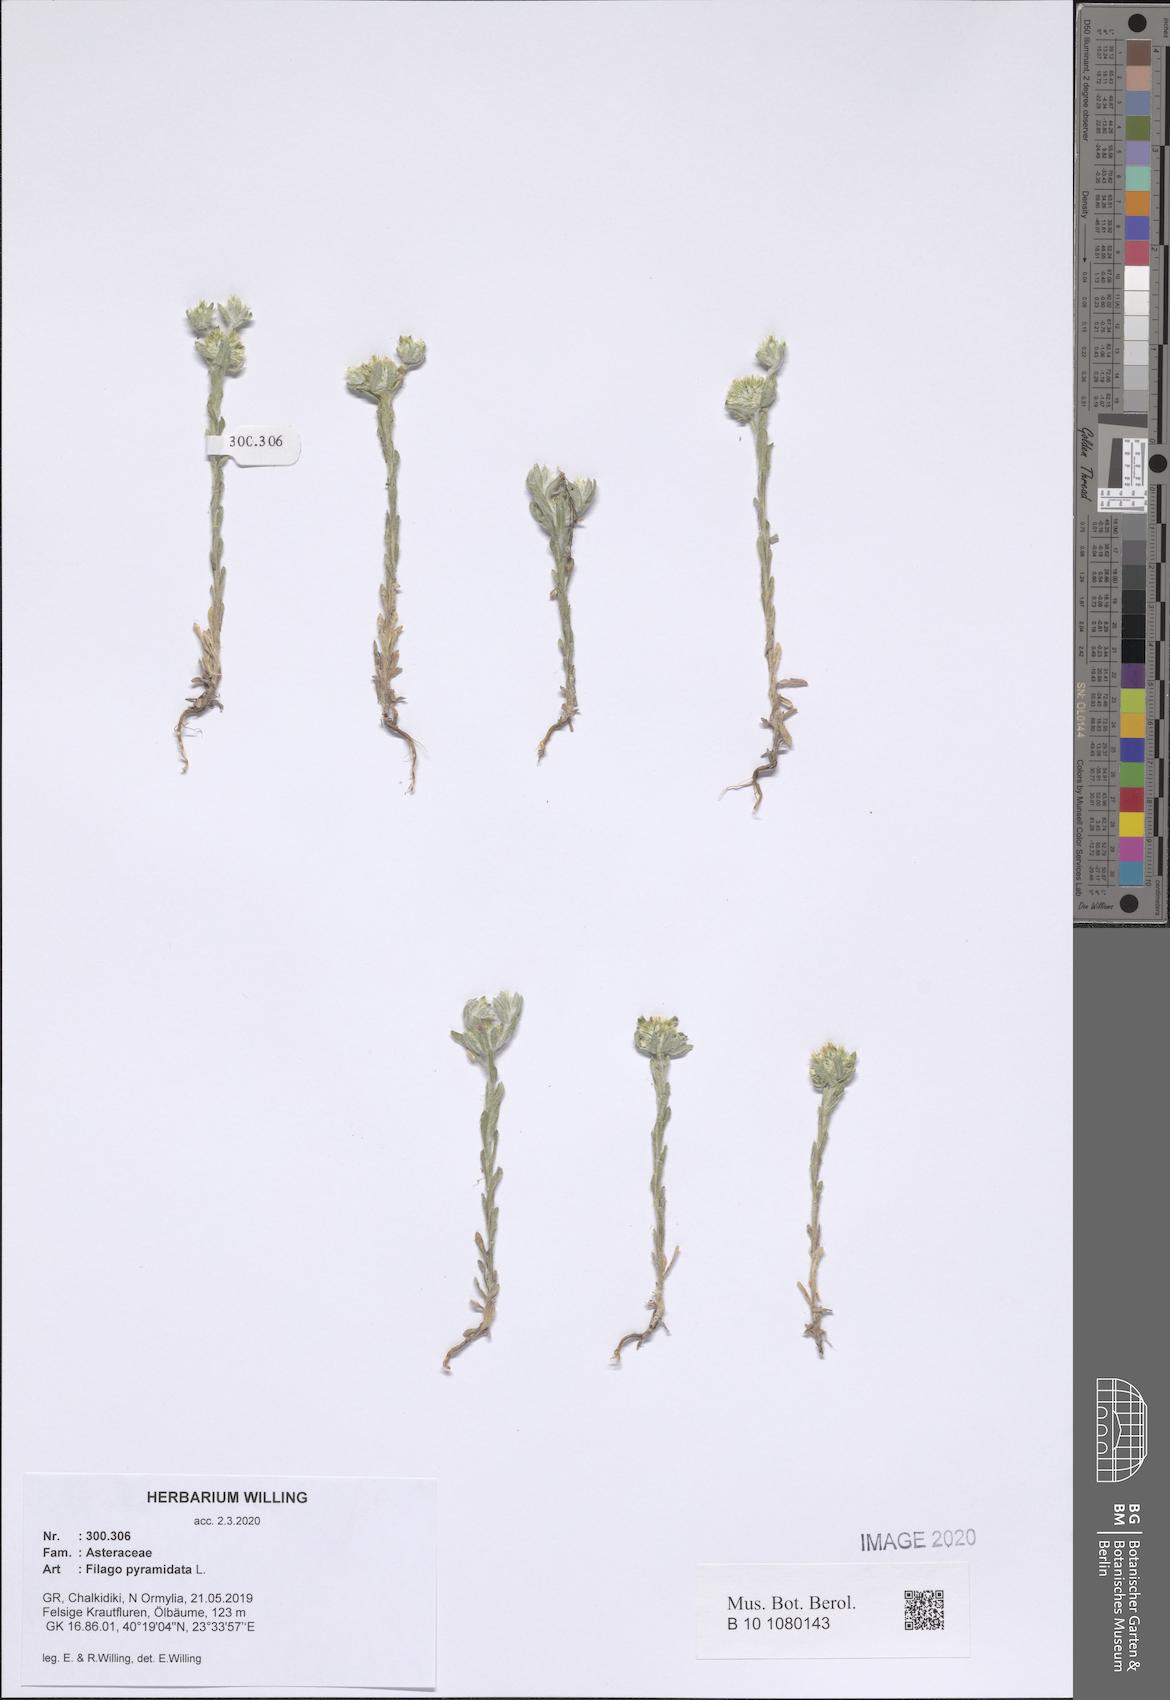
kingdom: Plantae
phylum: Tracheophyta
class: Magnoliopsida
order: Asterales
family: Asteraceae
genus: Filago
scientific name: Filago pyramidata
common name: Broad-leaved cudweed
